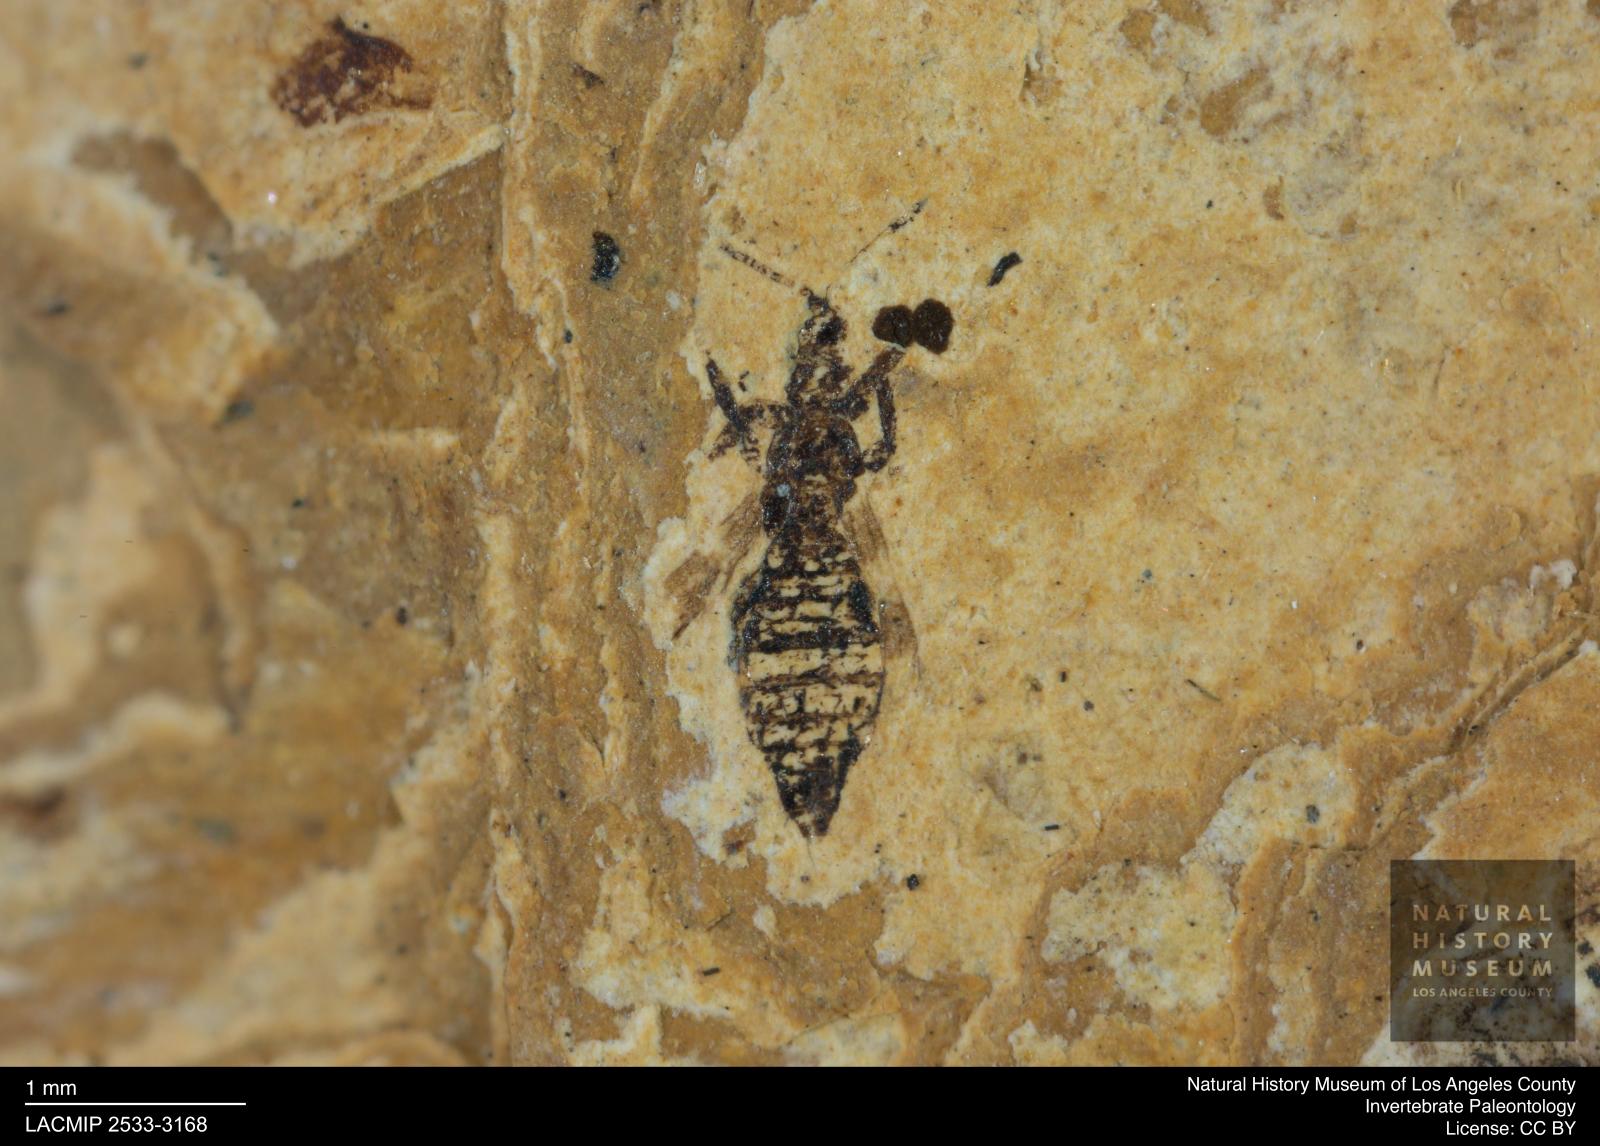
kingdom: Animalia
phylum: Arthropoda
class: Insecta
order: Thysanoptera
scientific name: Thysanoptera
